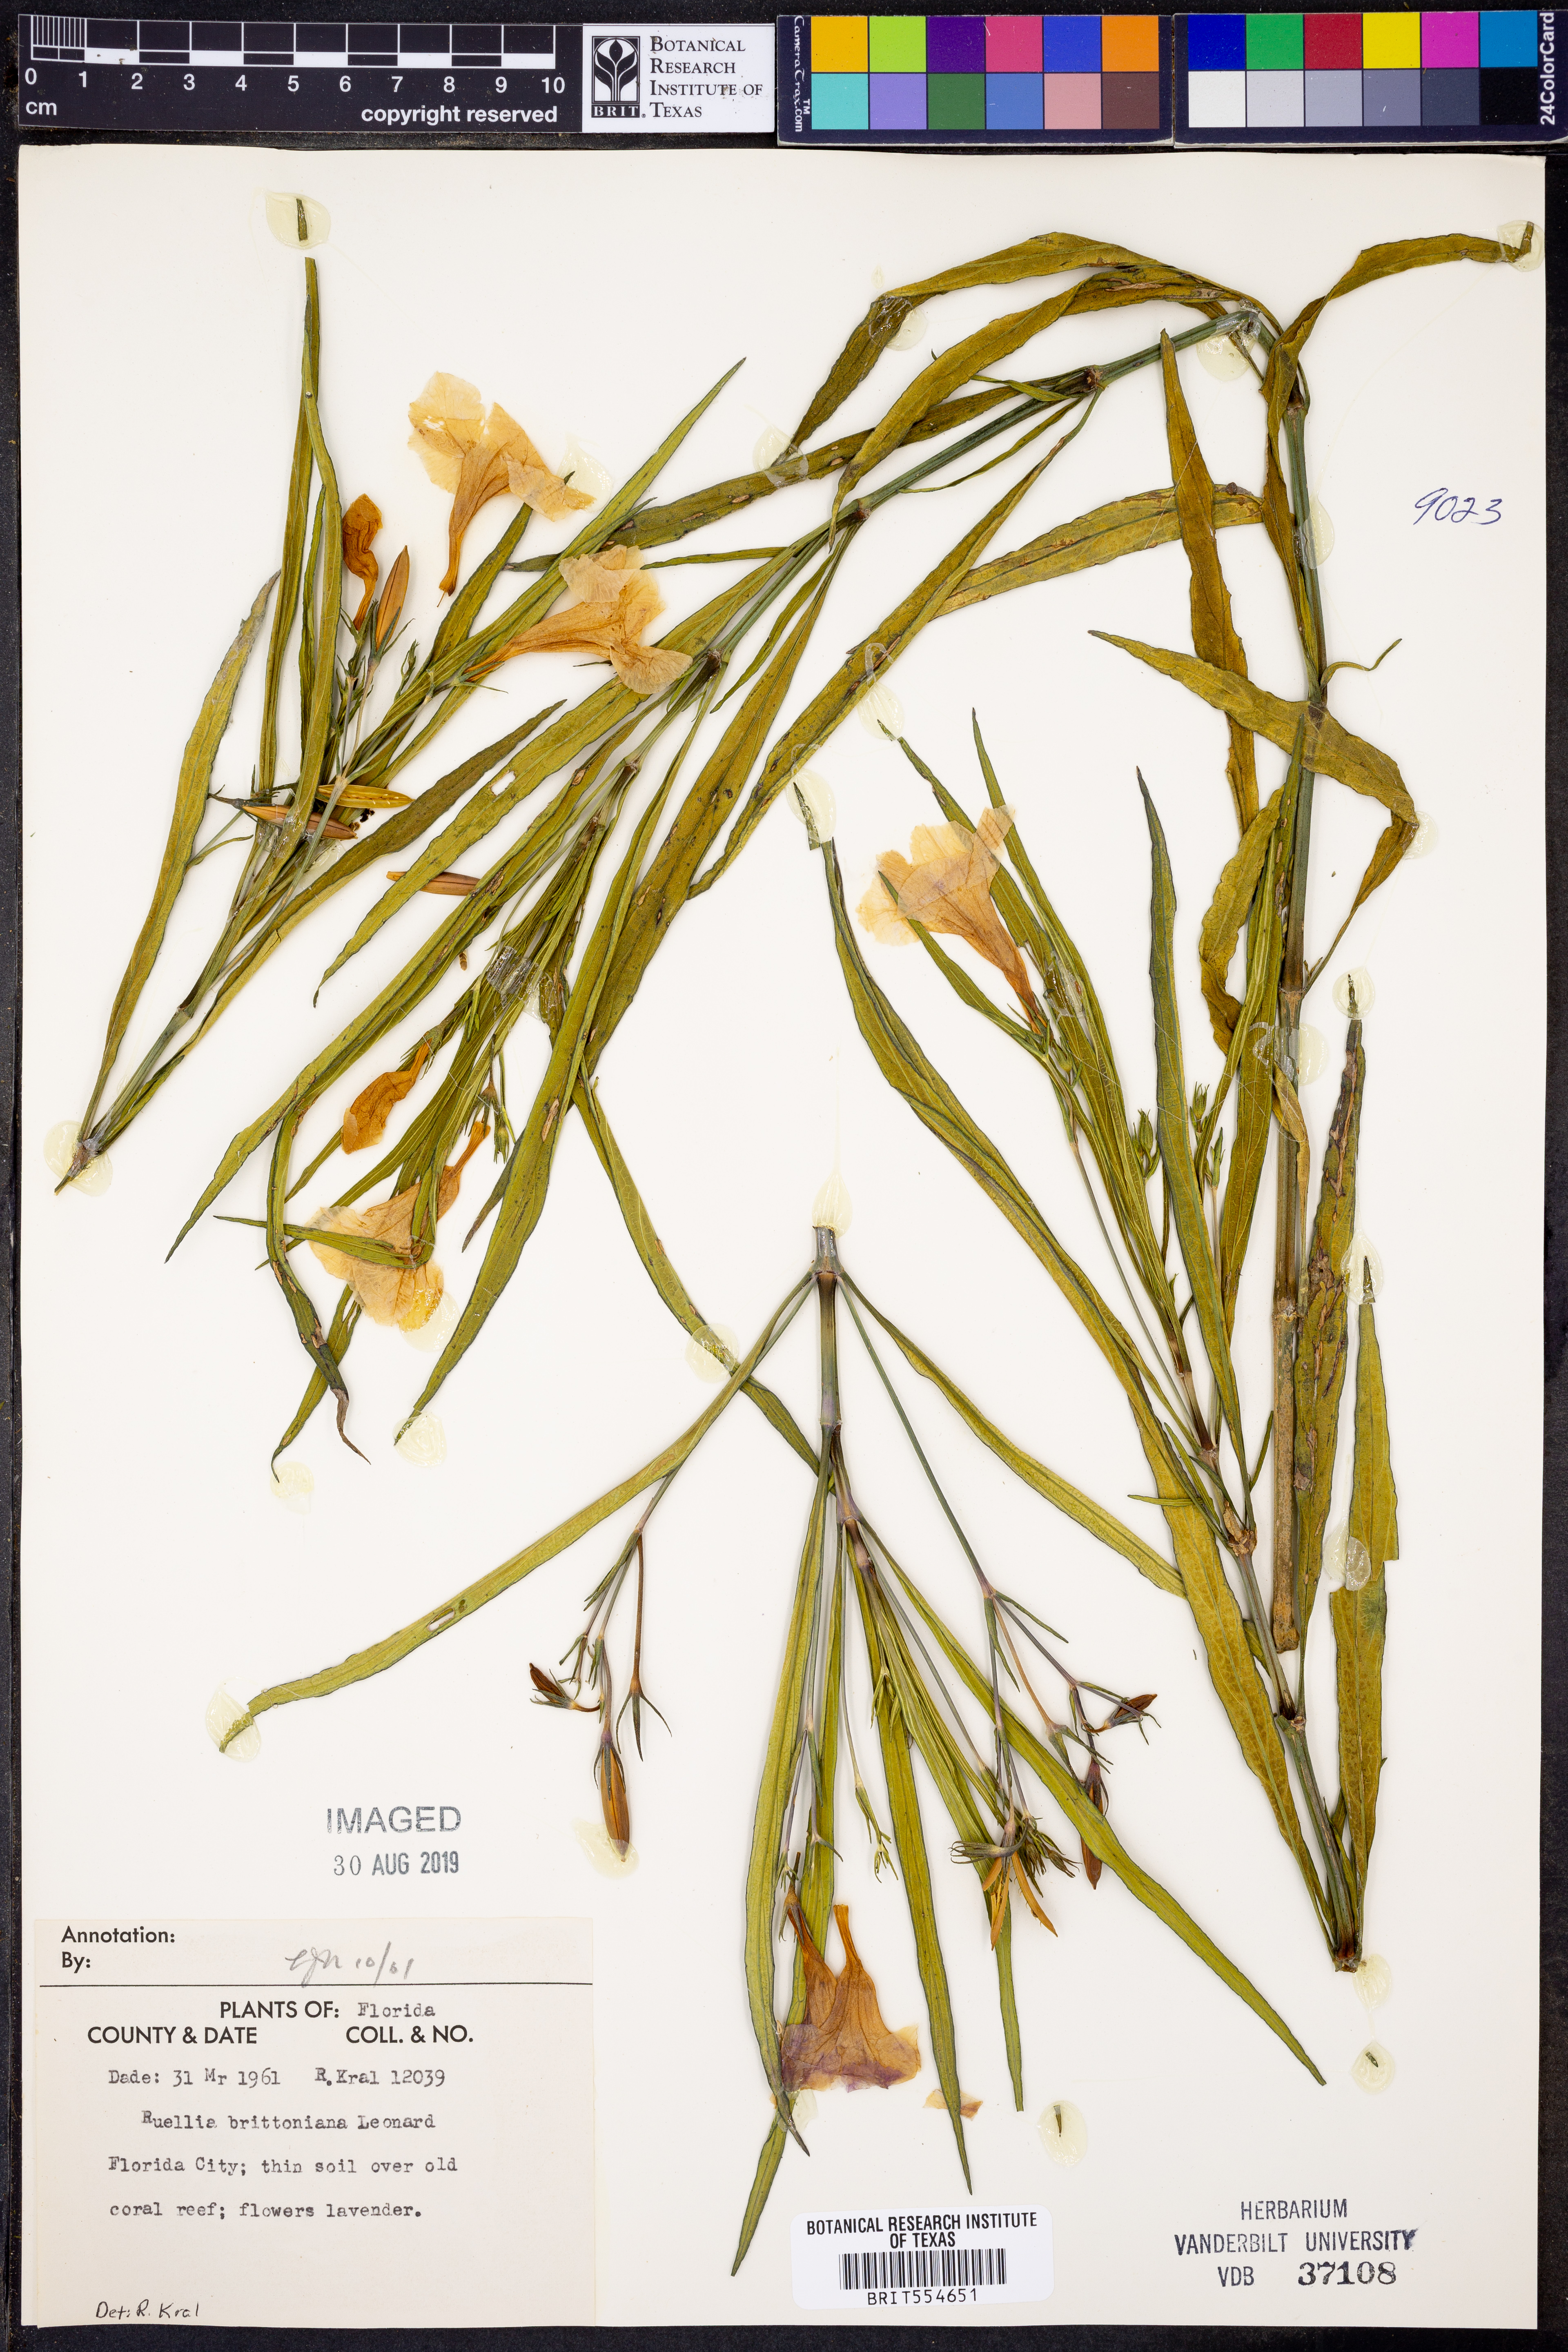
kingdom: Plantae
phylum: Tracheophyta
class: Magnoliopsida
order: Lamiales
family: Acanthaceae
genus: Ruellia
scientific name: Ruellia simplex
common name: Softseed wild petunia
